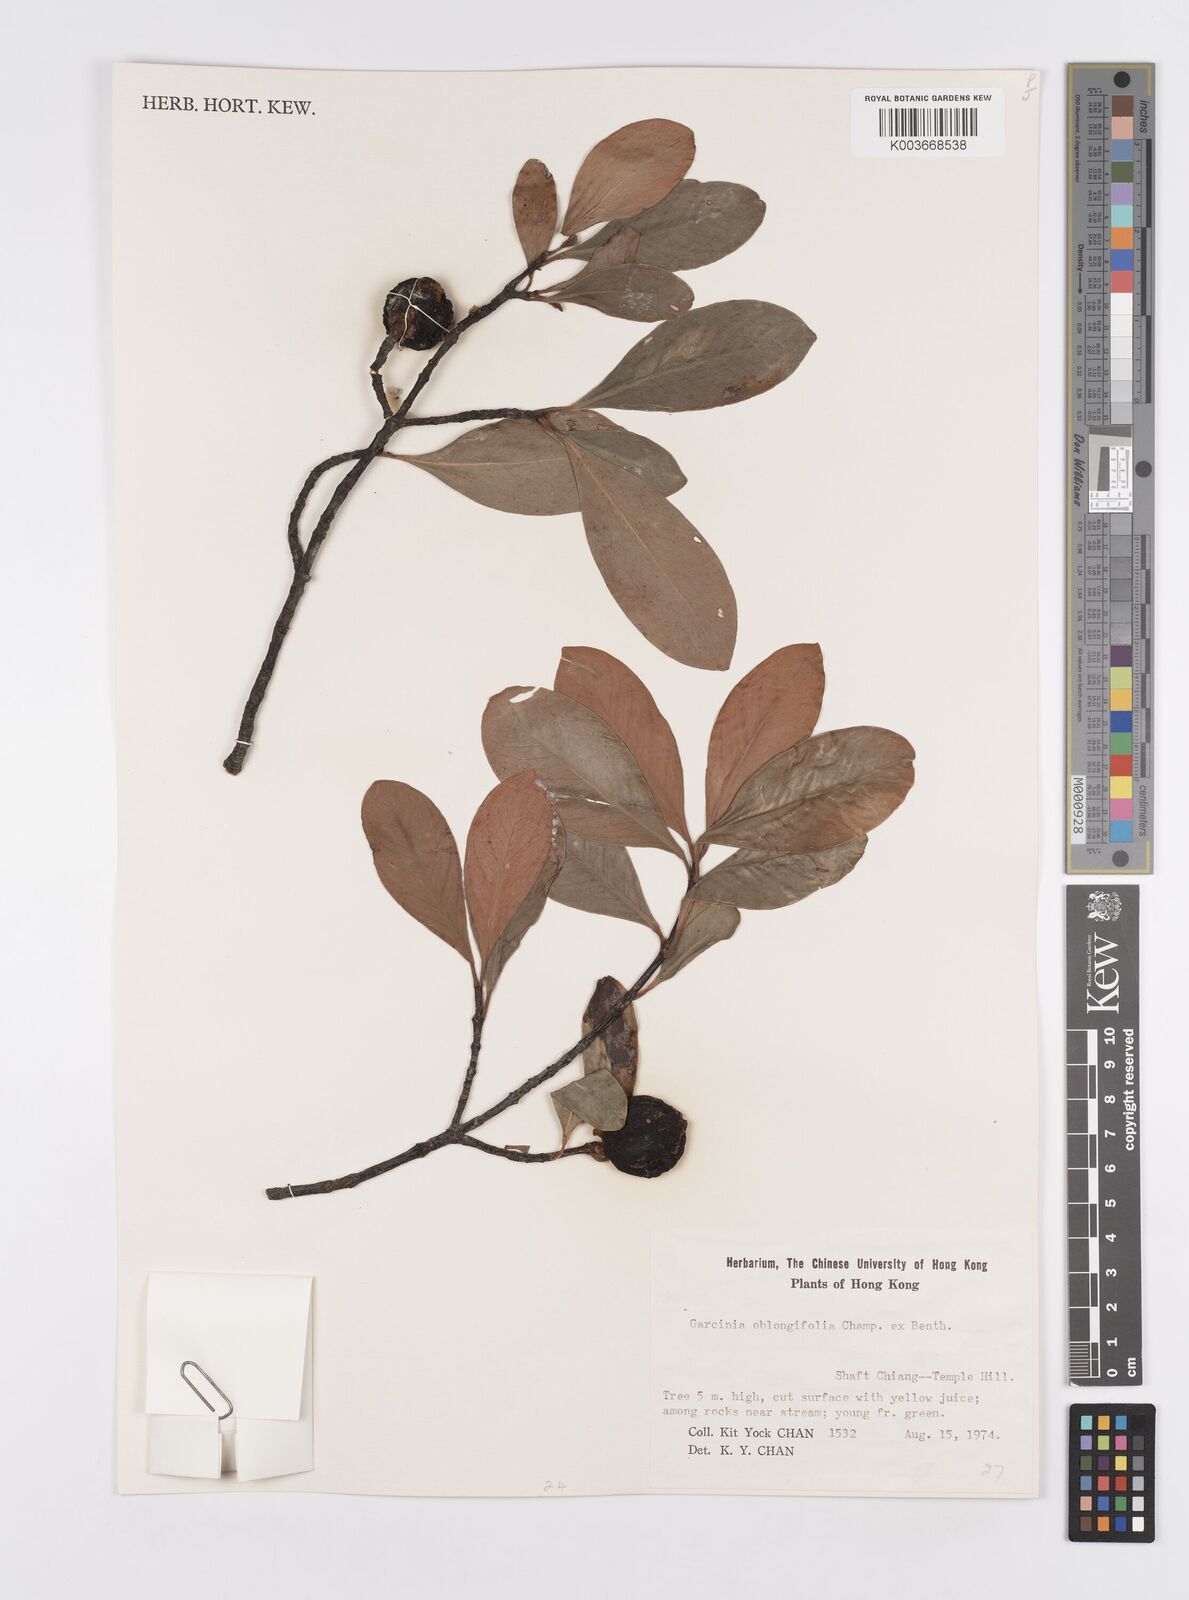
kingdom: Plantae
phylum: Tracheophyta
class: Magnoliopsida
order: Malpighiales
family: Clusiaceae
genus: Garcinia
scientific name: Garcinia oblongifolia
